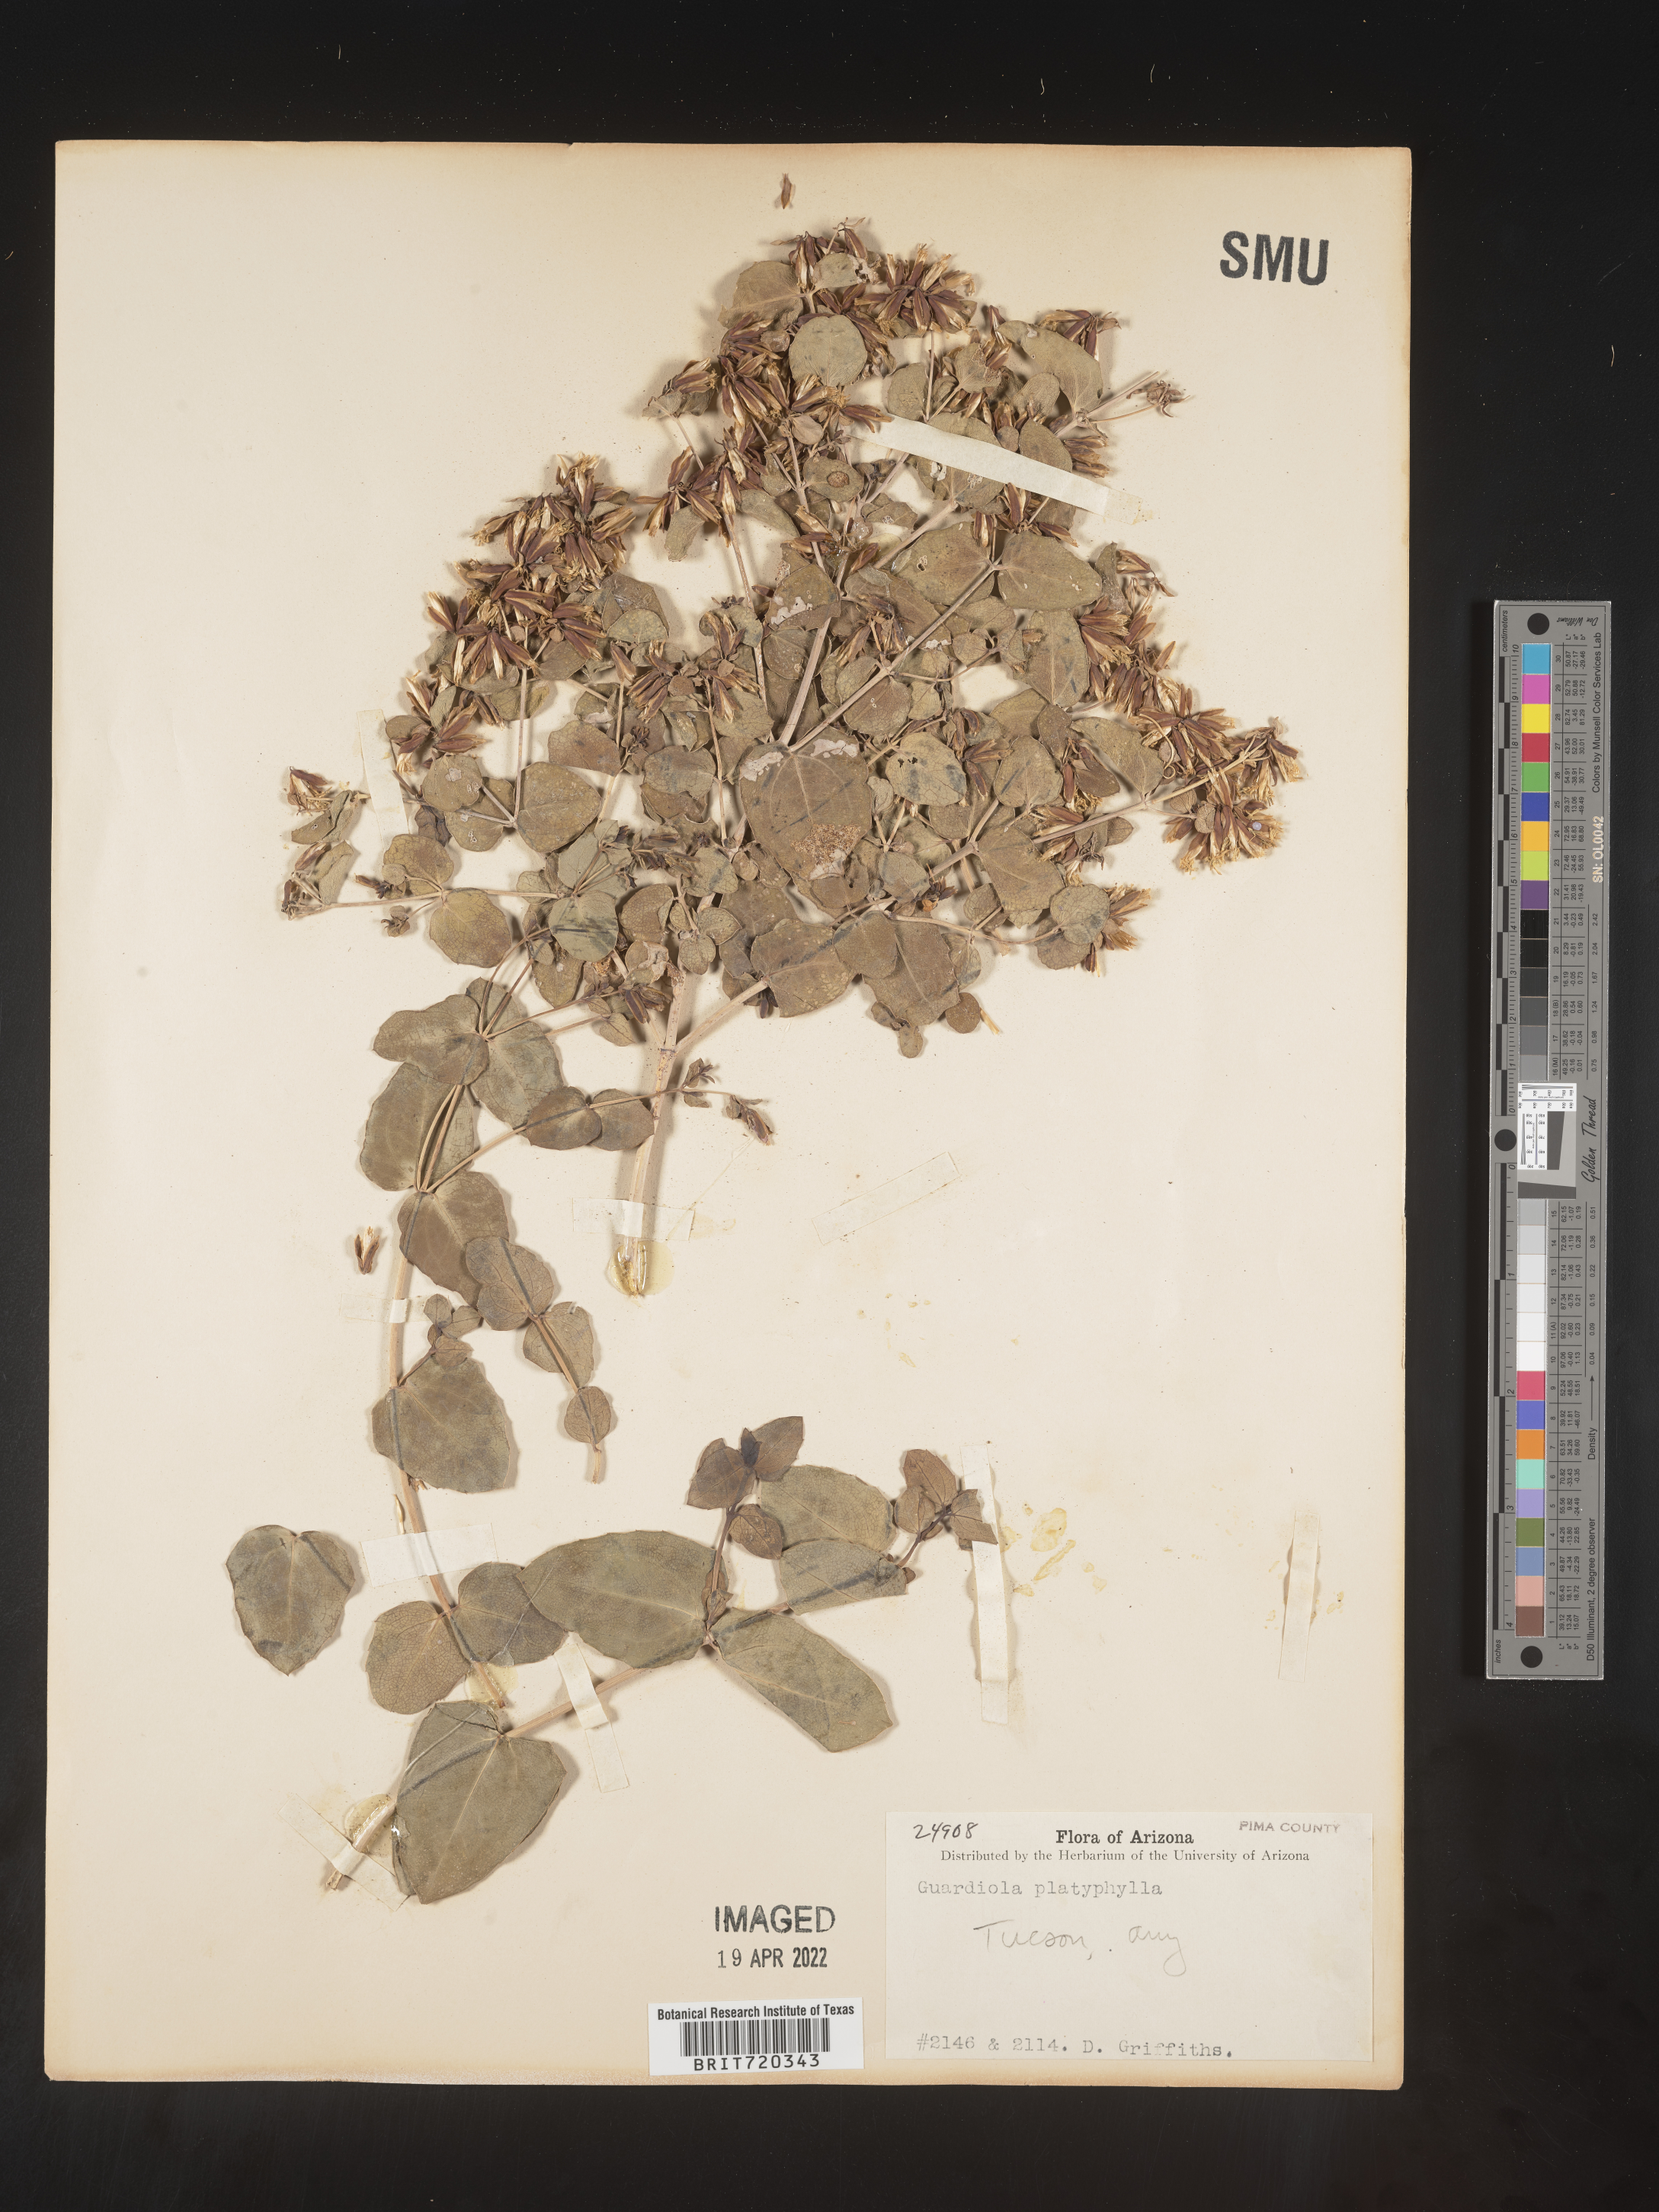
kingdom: Plantae
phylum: Tracheophyta
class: Magnoliopsida
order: Asterales
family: Asteraceae
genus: Guardiola
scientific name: Guardiola
